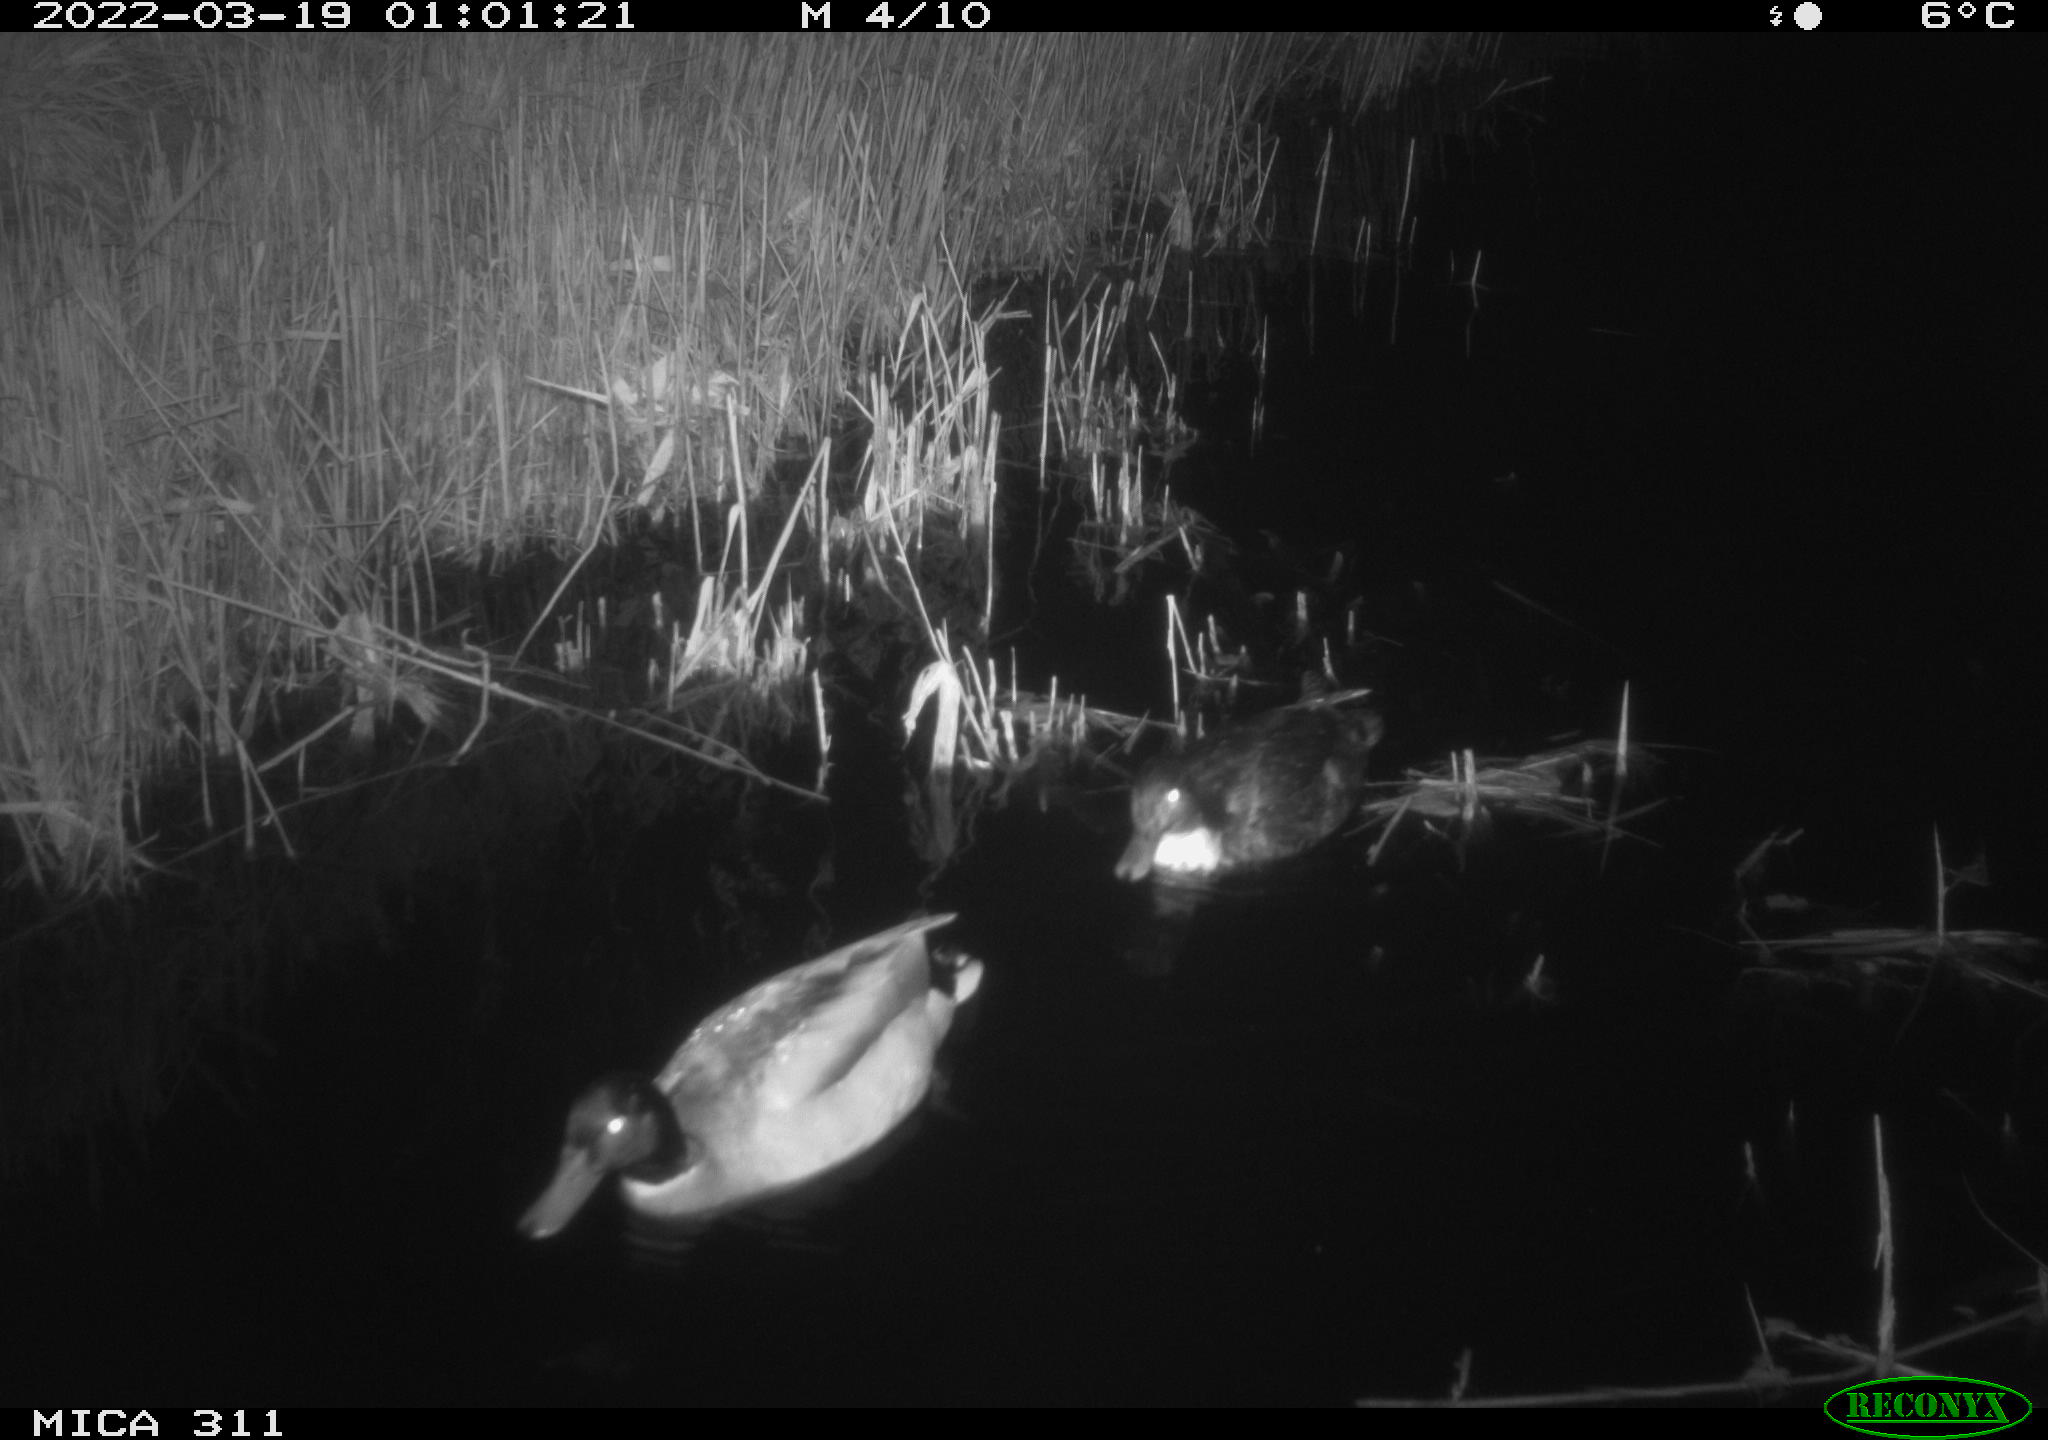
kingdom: Animalia
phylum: Chordata
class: Aves
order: Anseriformes
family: Anatidae
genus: Anas
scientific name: Anas
